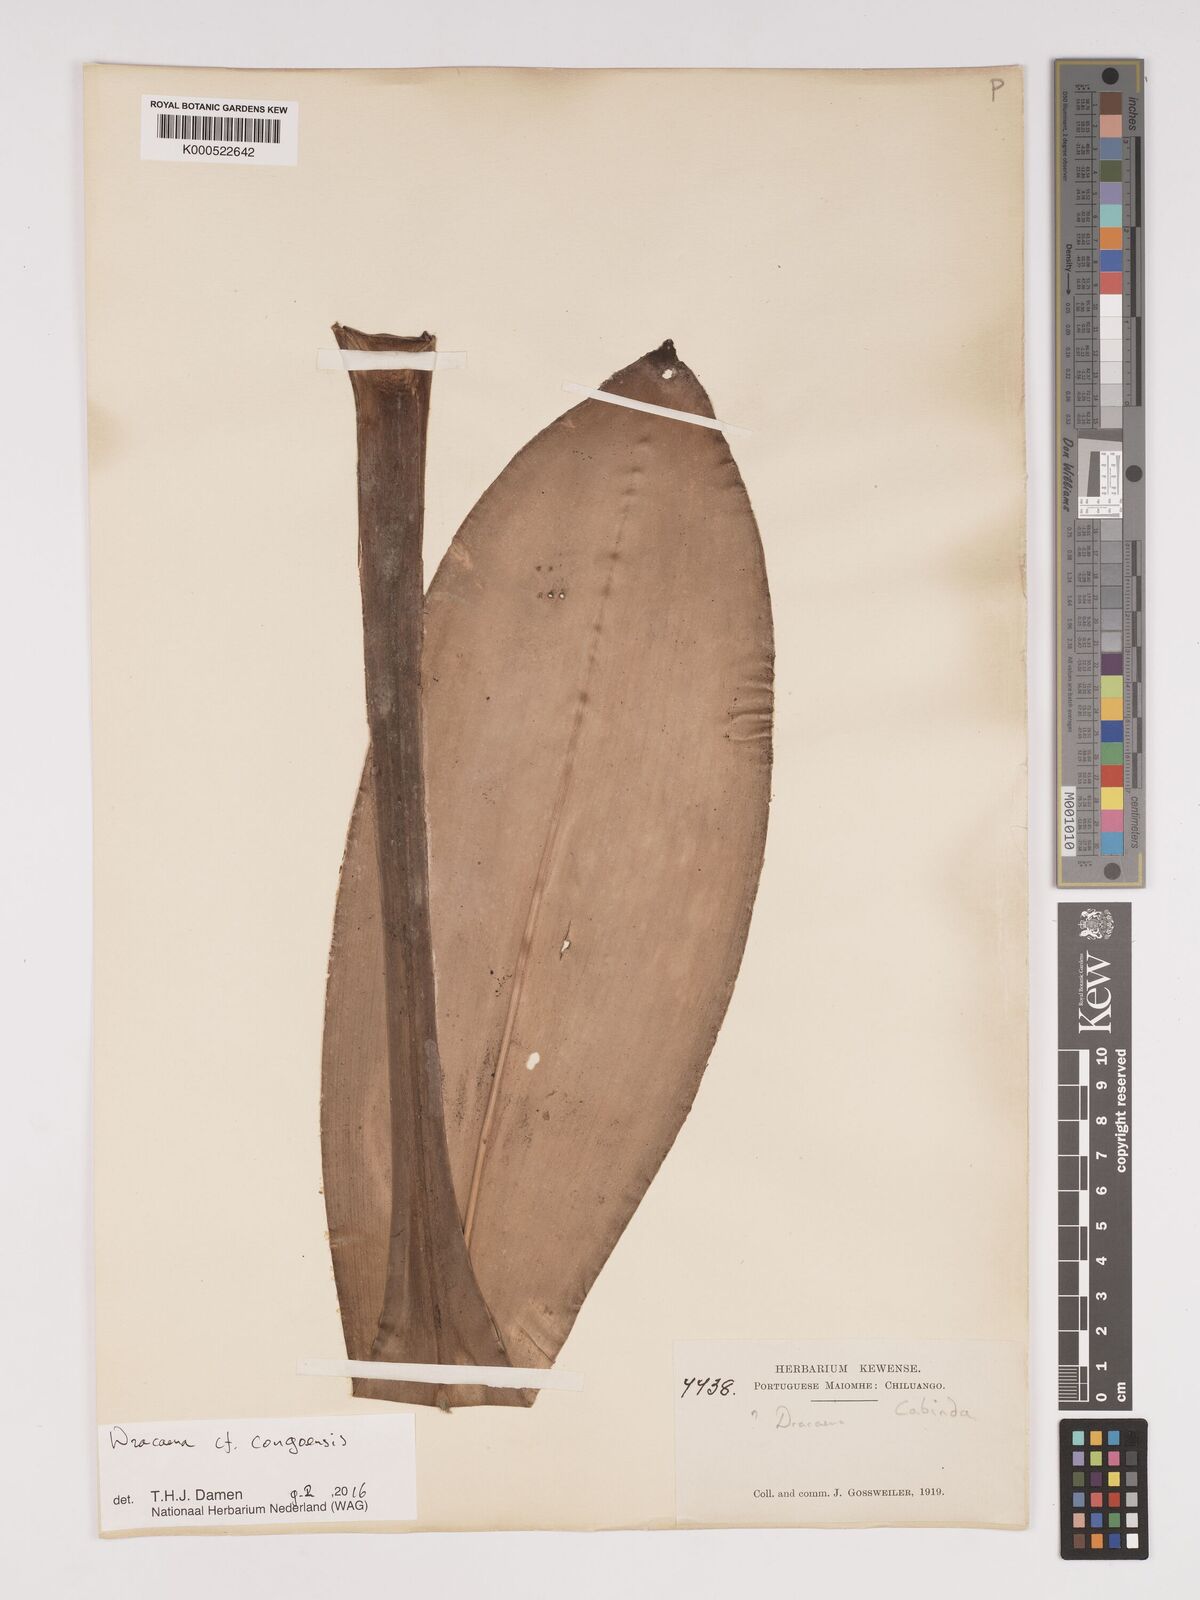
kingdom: Plantae
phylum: Tracheophyta
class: Liliopsida
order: Asparagales
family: Asparagaceae
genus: Dracaena
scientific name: Dracaena congoensis
